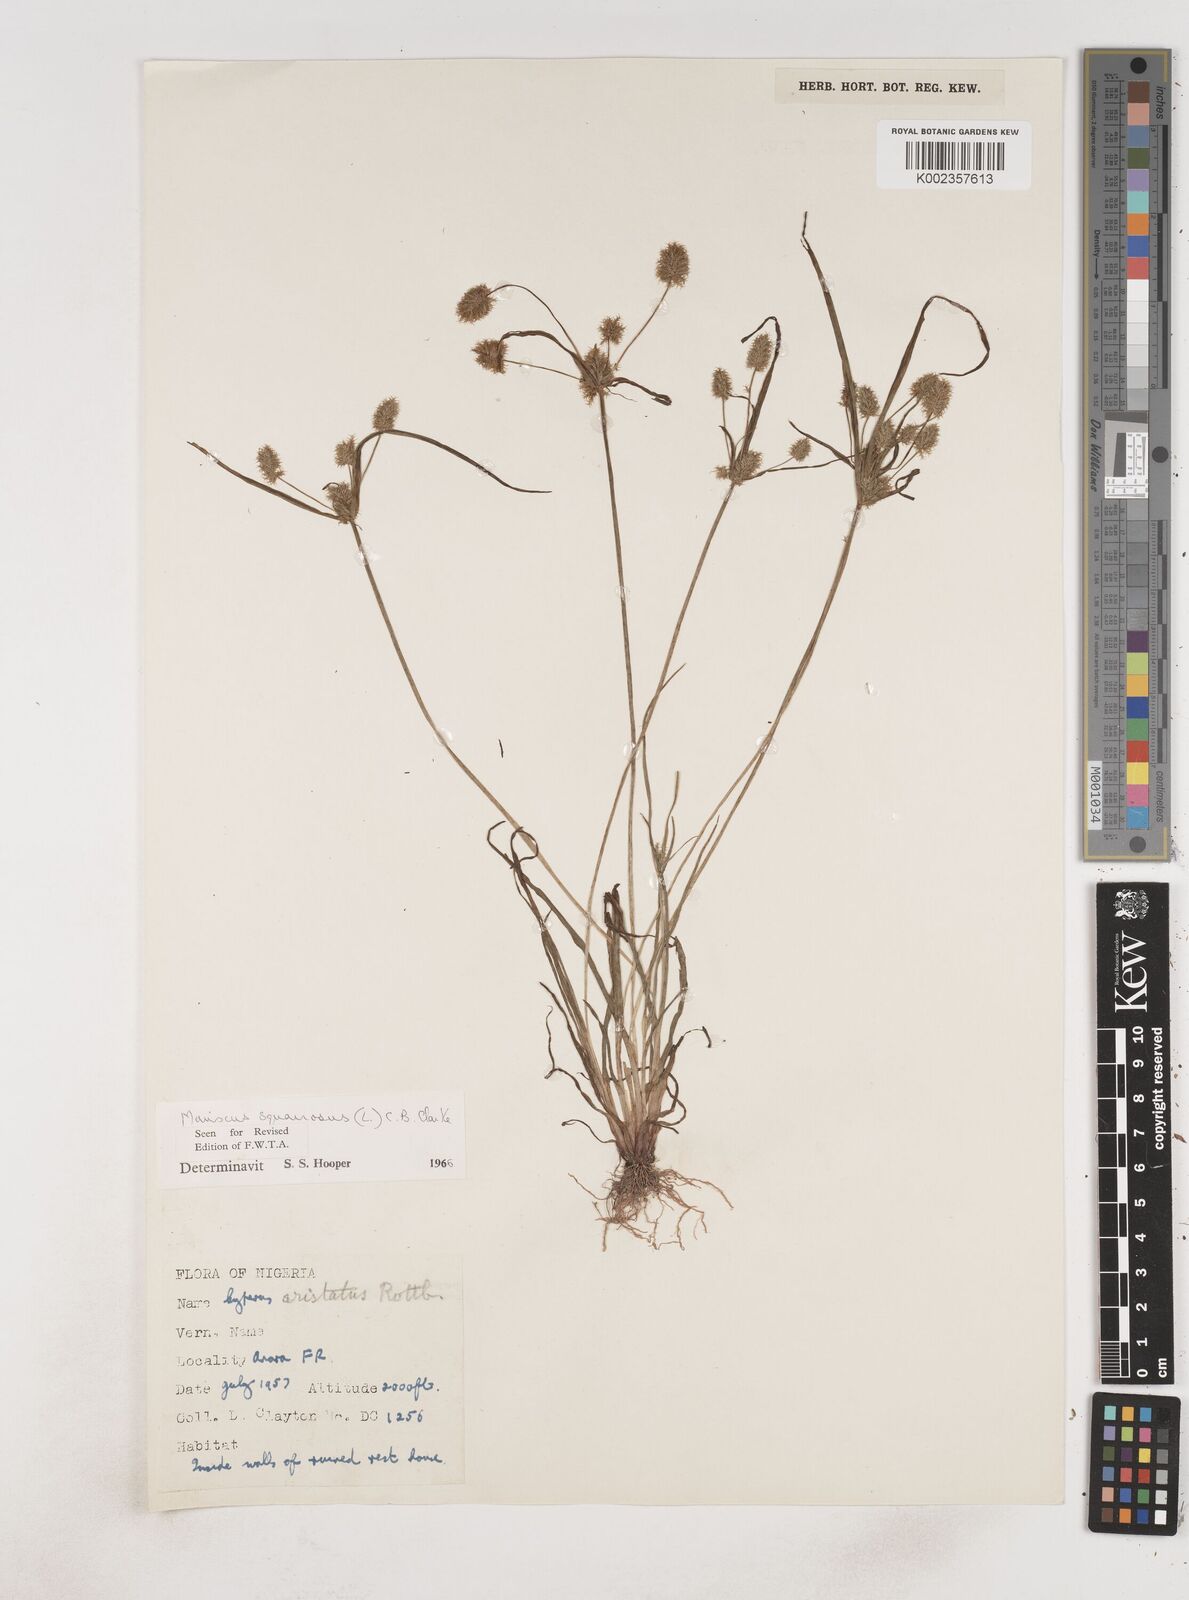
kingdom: Plantae
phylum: Tracheophyta
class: Liliopsida
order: Poales
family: Cyperaceae
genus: Cyperus
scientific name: Cyperus squarrosus
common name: Awned cyperus
